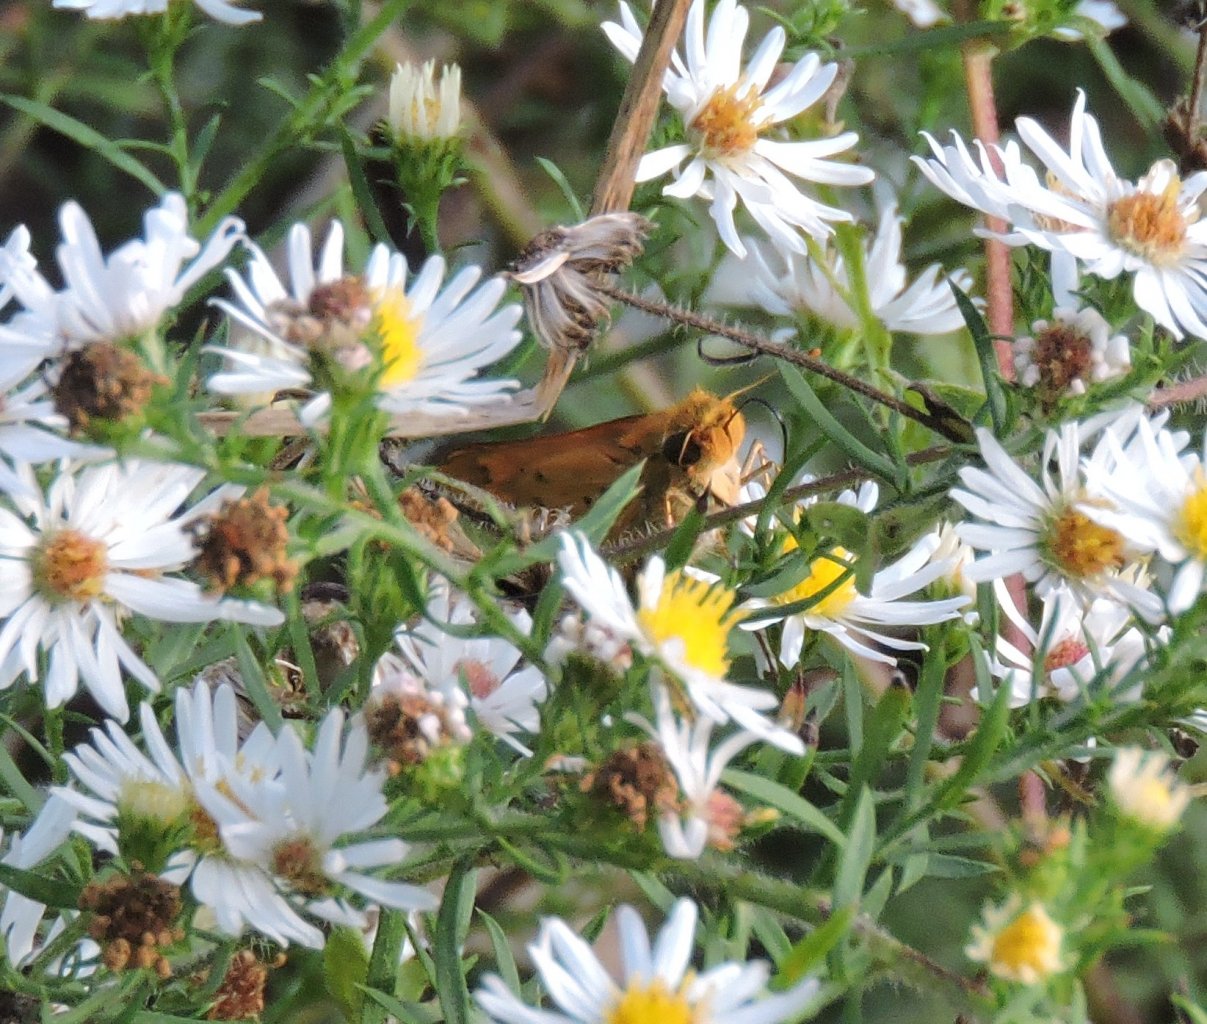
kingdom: Animalia
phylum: Arthropoda
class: Insecta
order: Lepidoptera
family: Hesperiidae
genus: Hylephila
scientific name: Hylephila phyleus
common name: Fiery Skipper
